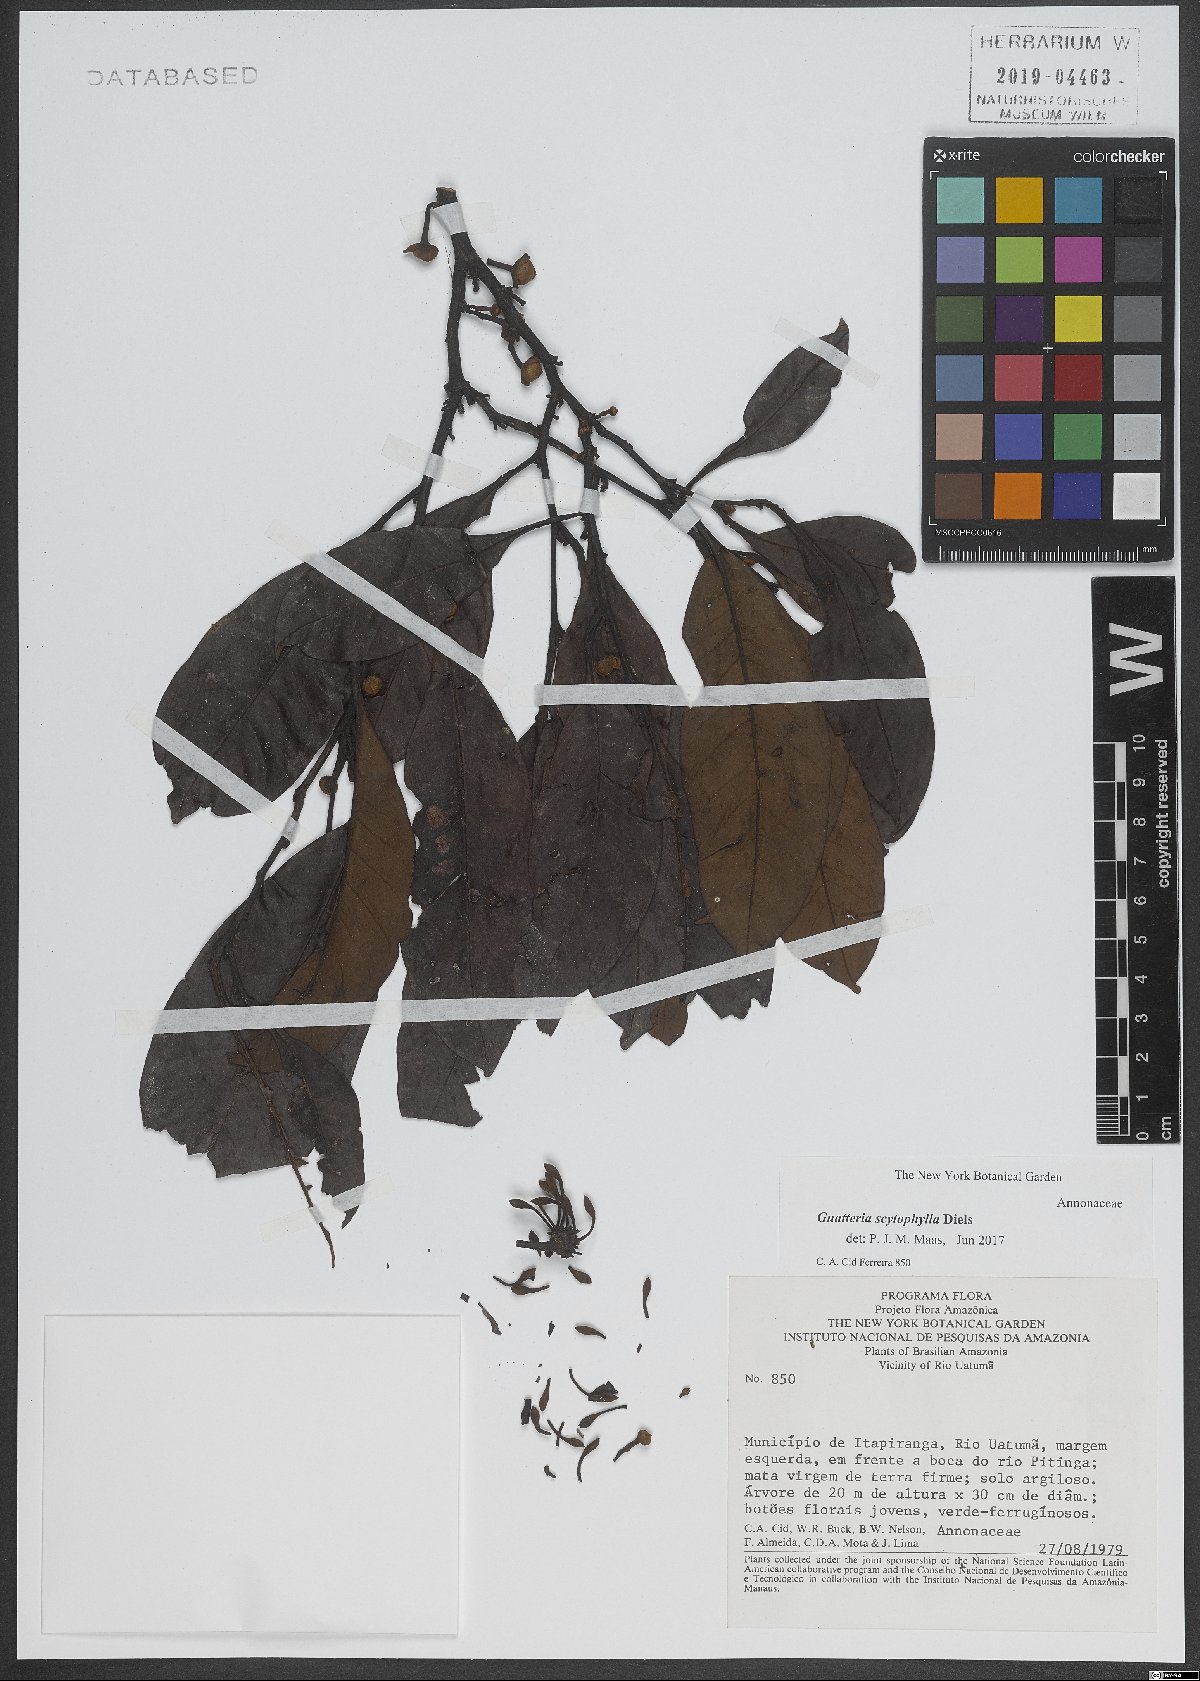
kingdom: Plantae
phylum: Tracheophyta
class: Magnoliopsida
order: Magnoliales
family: Annonaceae
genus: Guatteria
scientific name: Guatteria scytophylla
